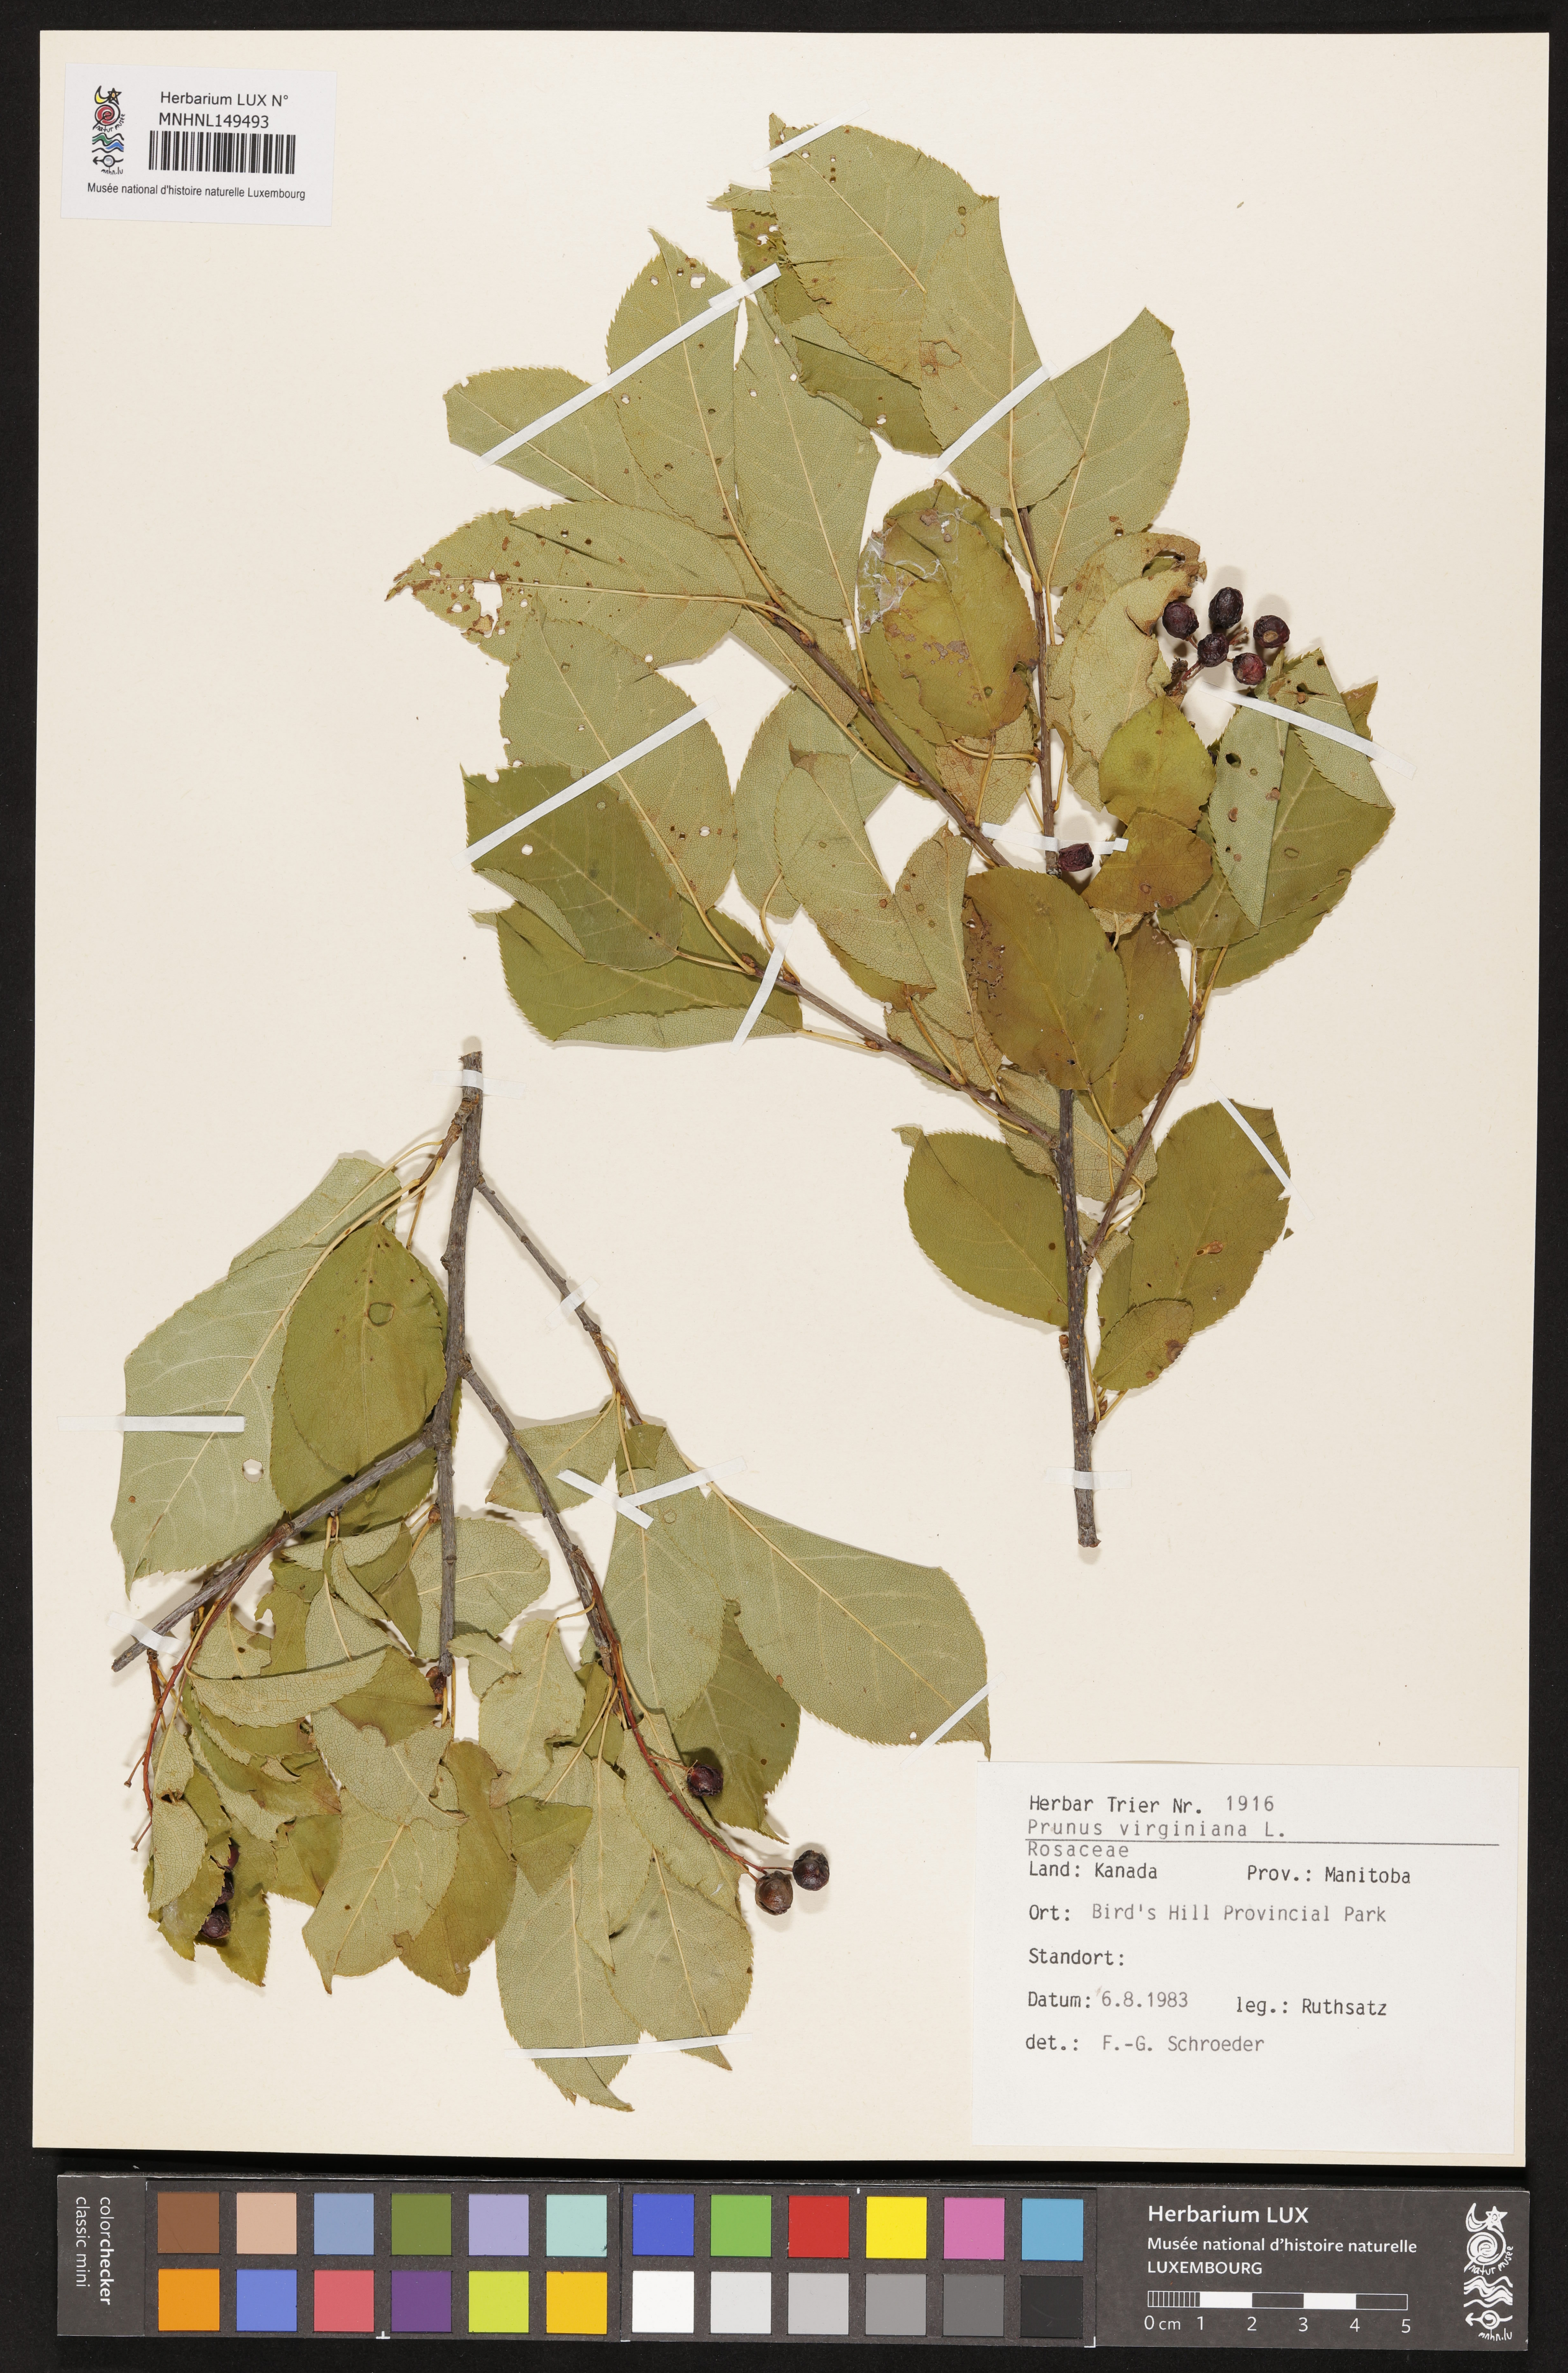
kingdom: Plantae
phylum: Tracheophyta
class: Magnoliopsida
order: Rosales
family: Rosaceae
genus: Prunus
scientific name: Prunus virginiana
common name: Chokecherry
